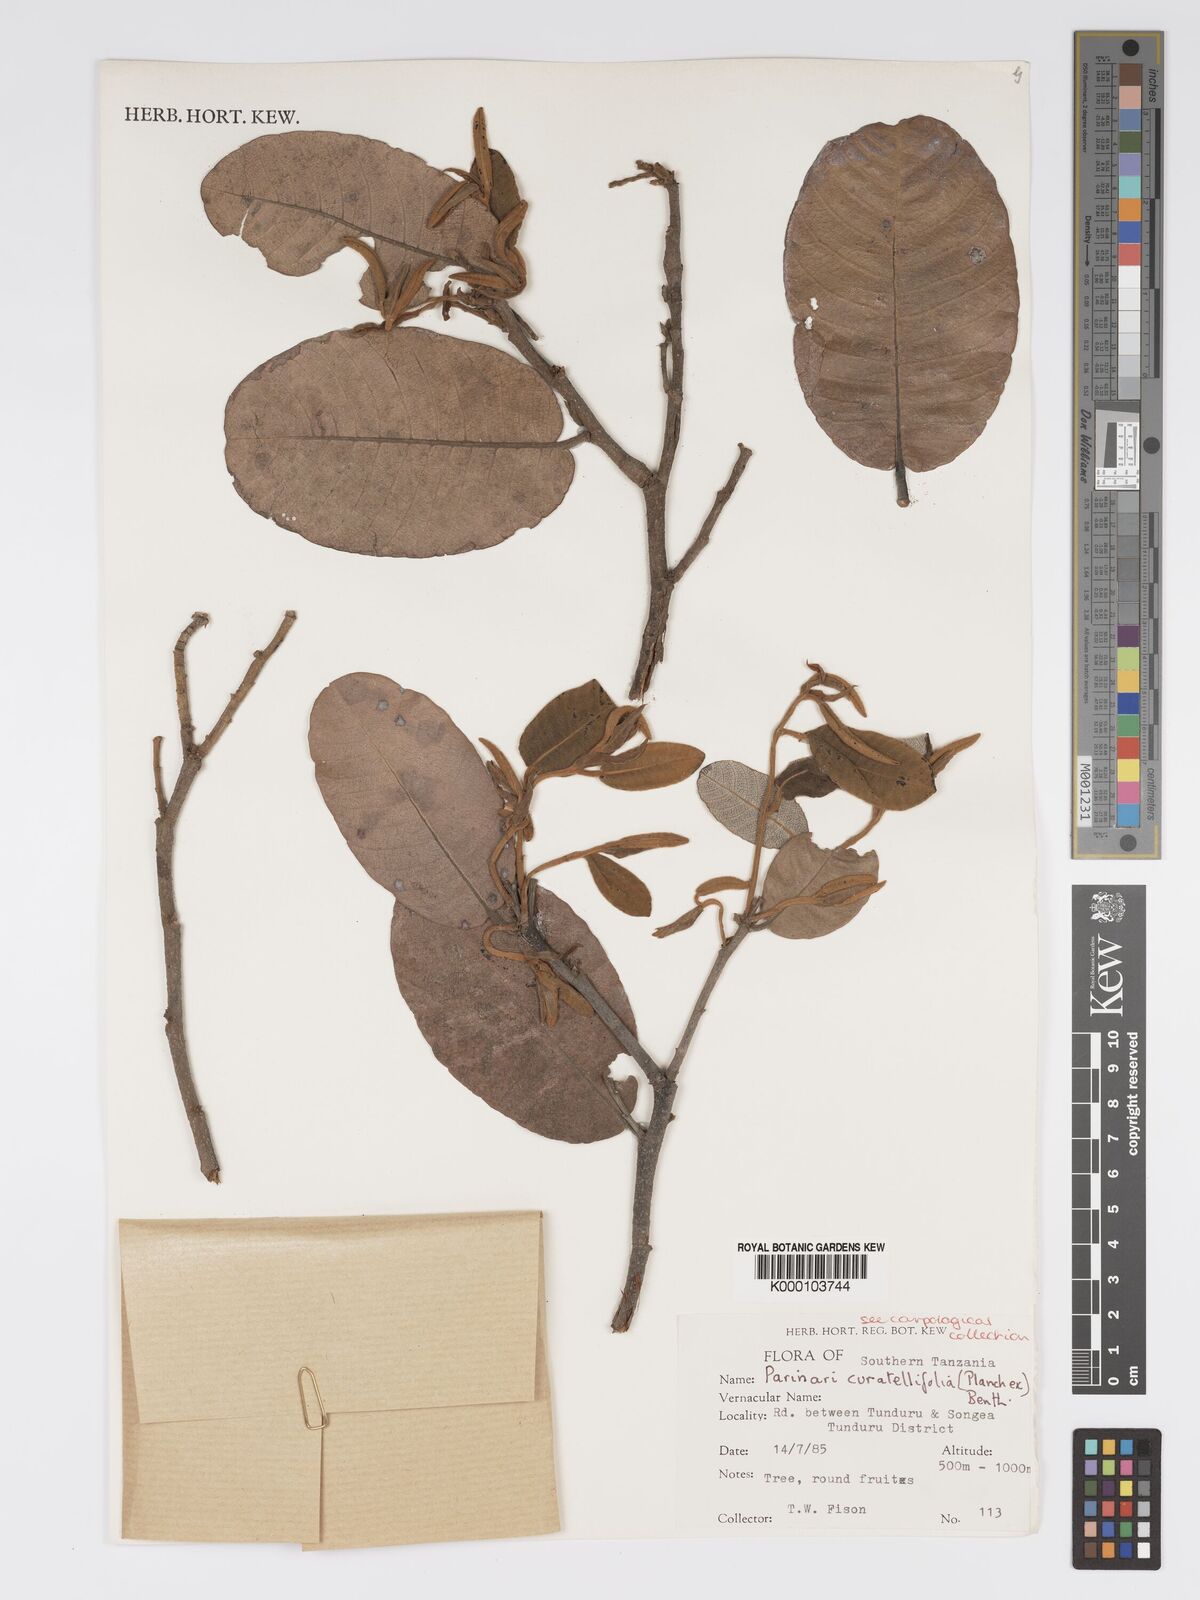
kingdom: Plantae
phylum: Tracheophyta
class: Magnoliopsida
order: Malpighiales
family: Chrysobalanaceae
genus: Parinari
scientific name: Parinari curatellifolia
